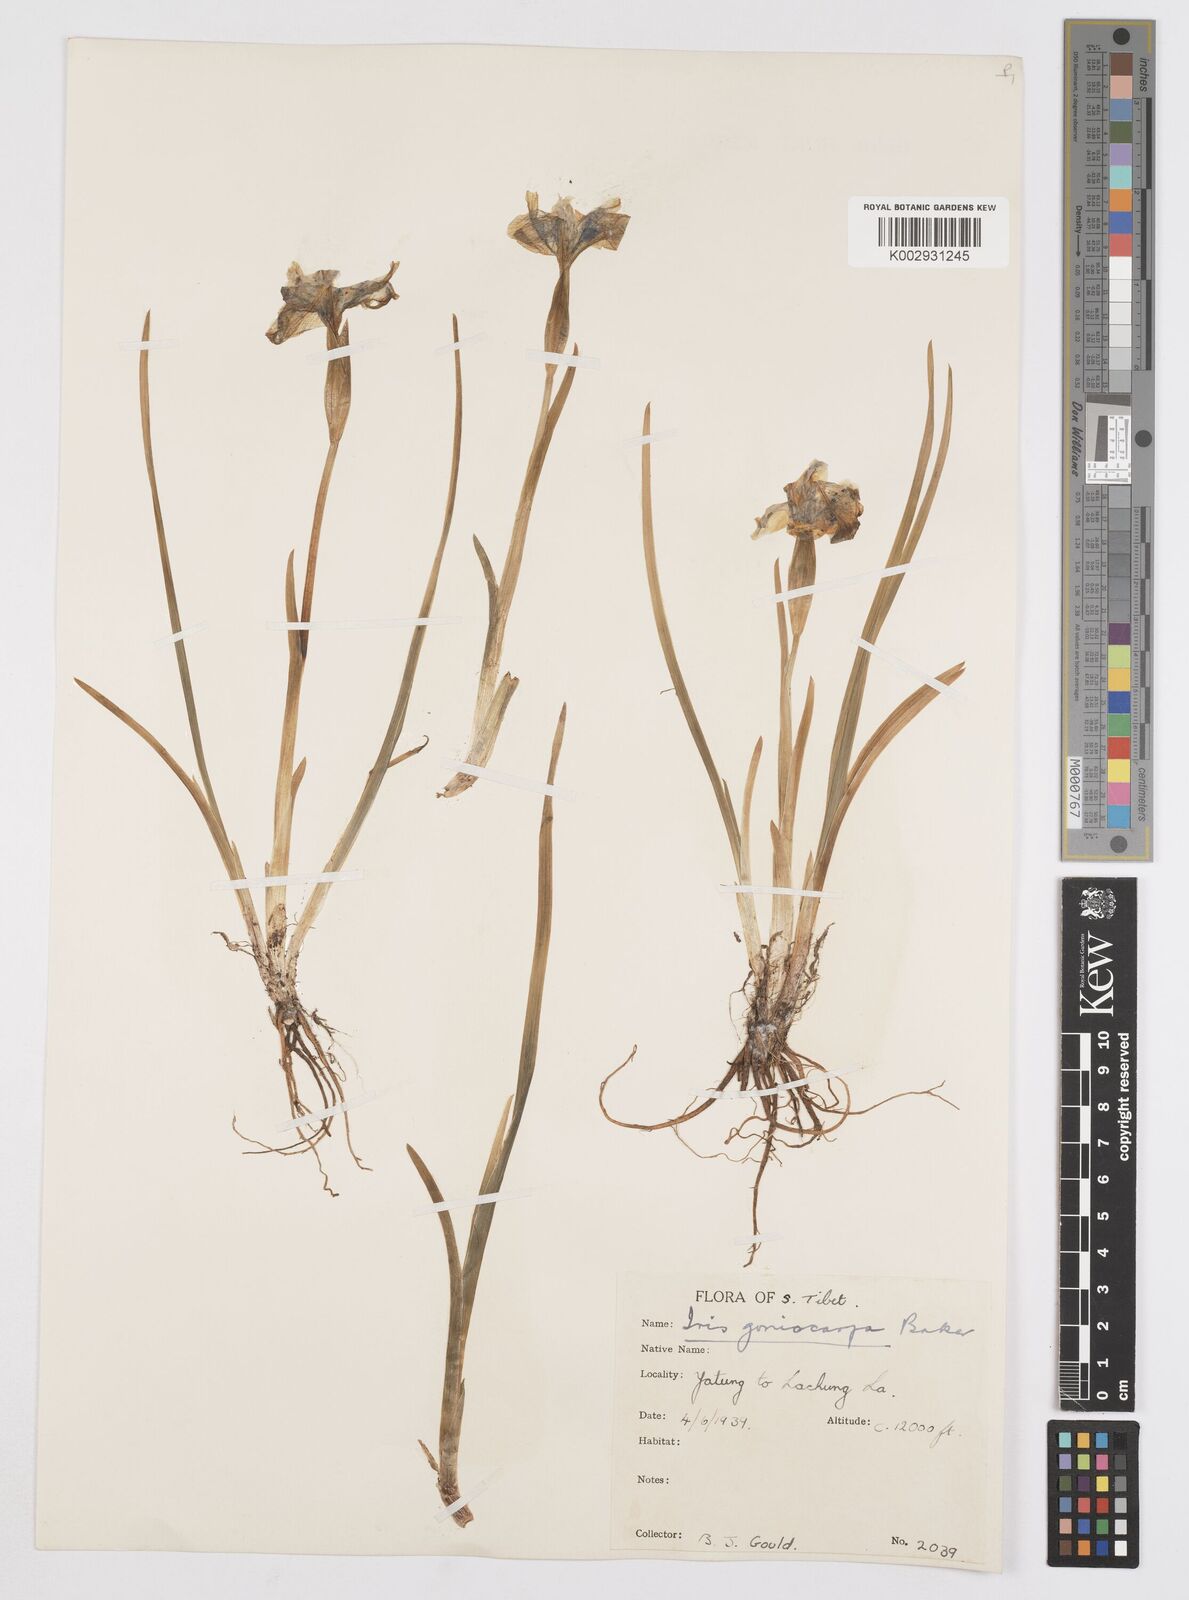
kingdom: Plantae
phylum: Tracheophyta
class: Liliopsida
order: Asparagales
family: Iridaceae
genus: Iris
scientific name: Iris goniocarpa
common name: Angular-fruit iris
